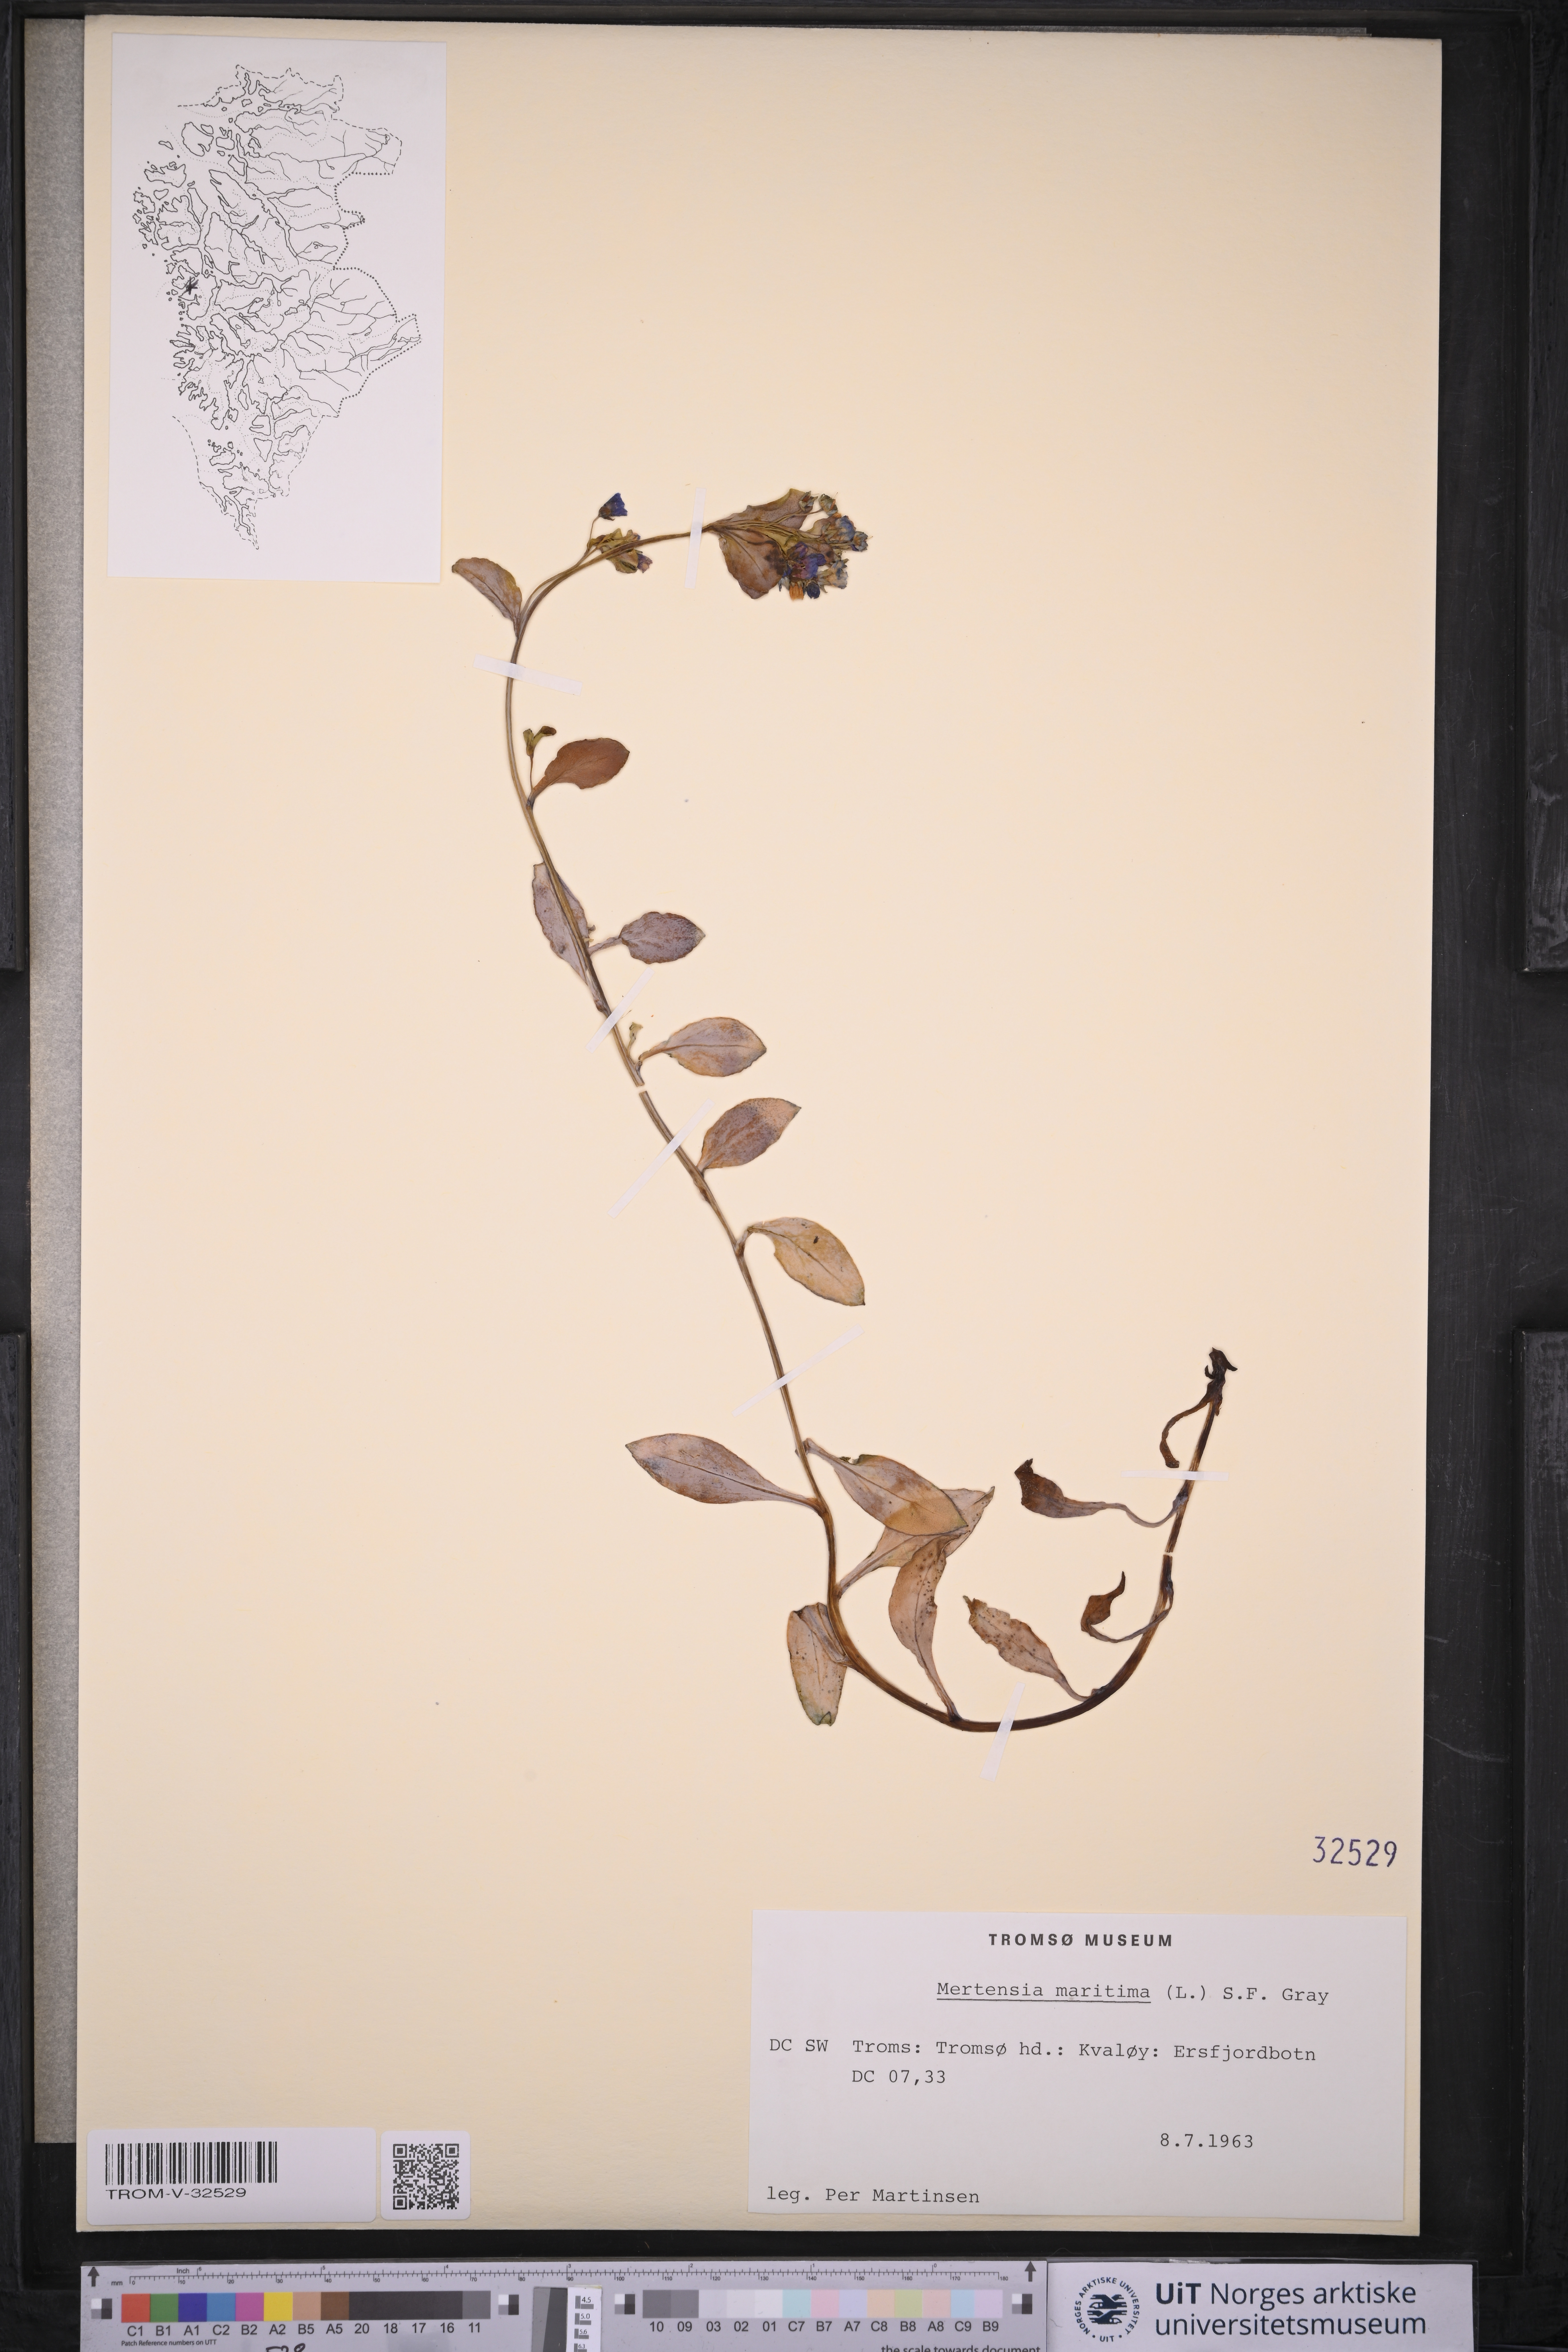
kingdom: Plantae
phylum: Tracheophyta
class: Magnoliopsida
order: Boraginales
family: Boraginaceae
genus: Mertensia
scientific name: Mertensia maritima
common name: Oysterplant
